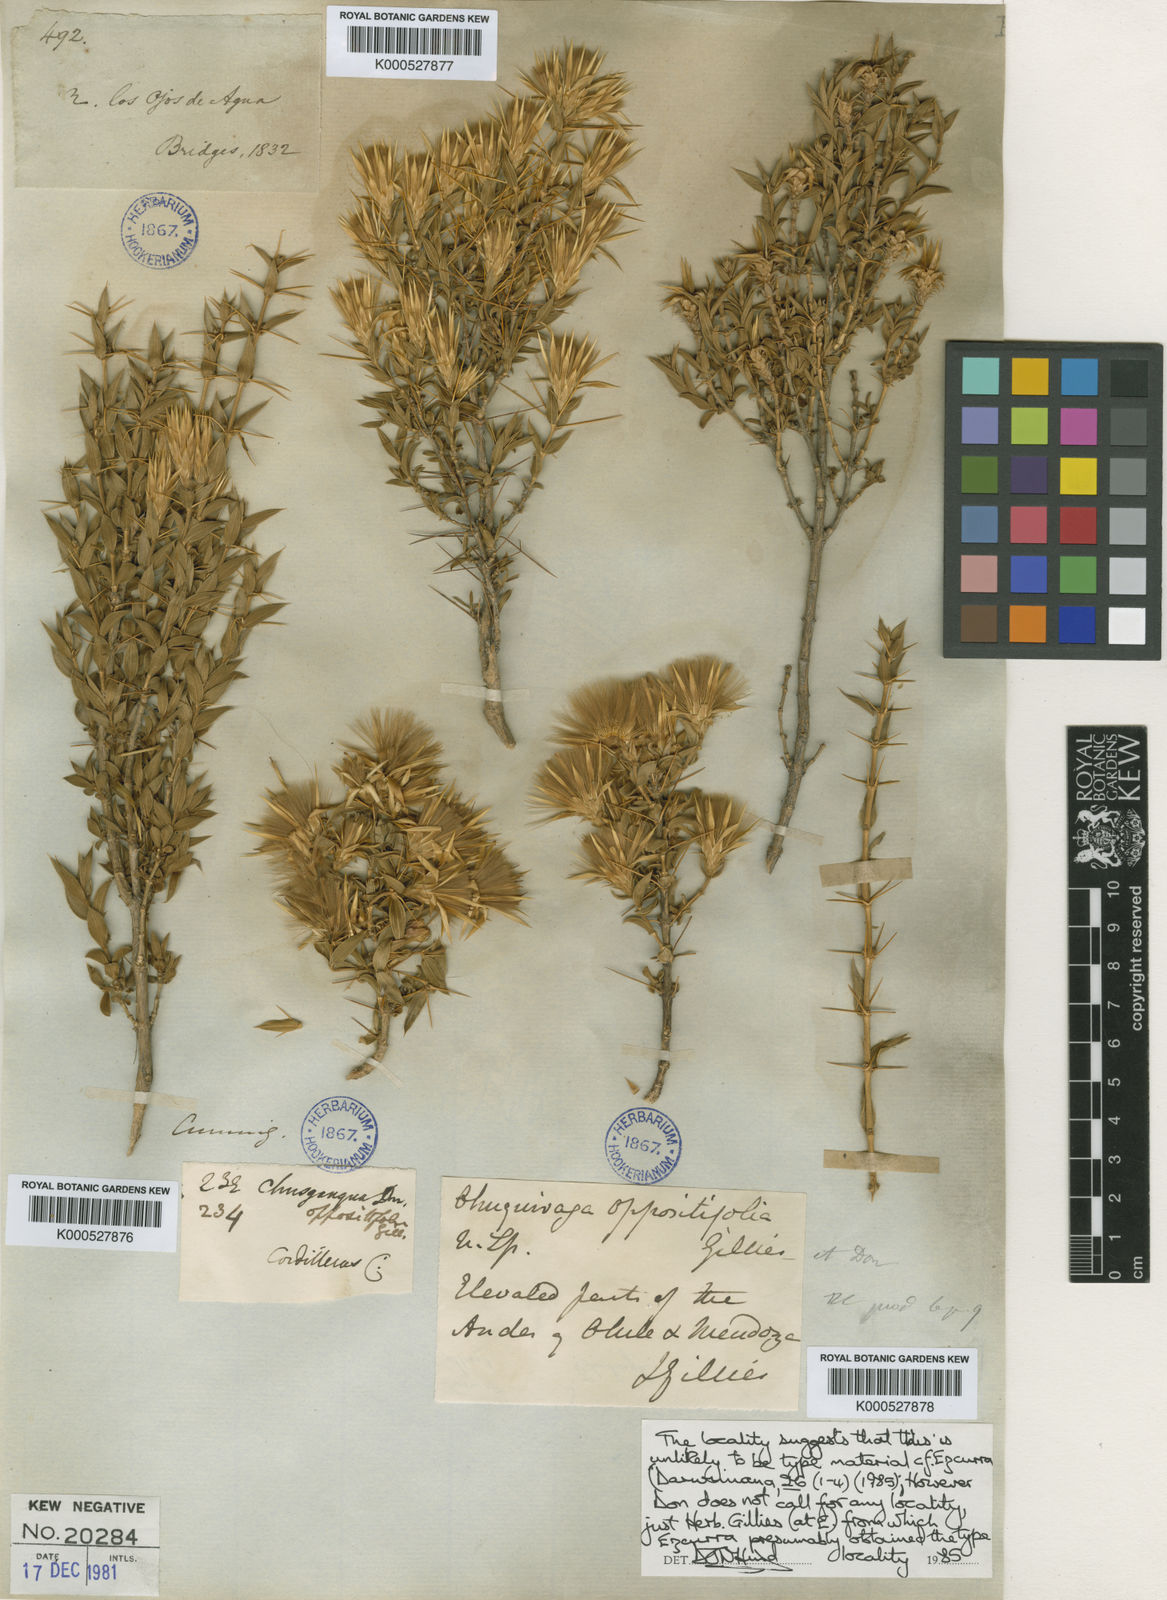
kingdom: Plantae
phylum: Tracheophyta
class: Magnoliopsida
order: Asterales
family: Asteraceae
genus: Chuquiraga
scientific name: Chuquiraga oppositifolia
